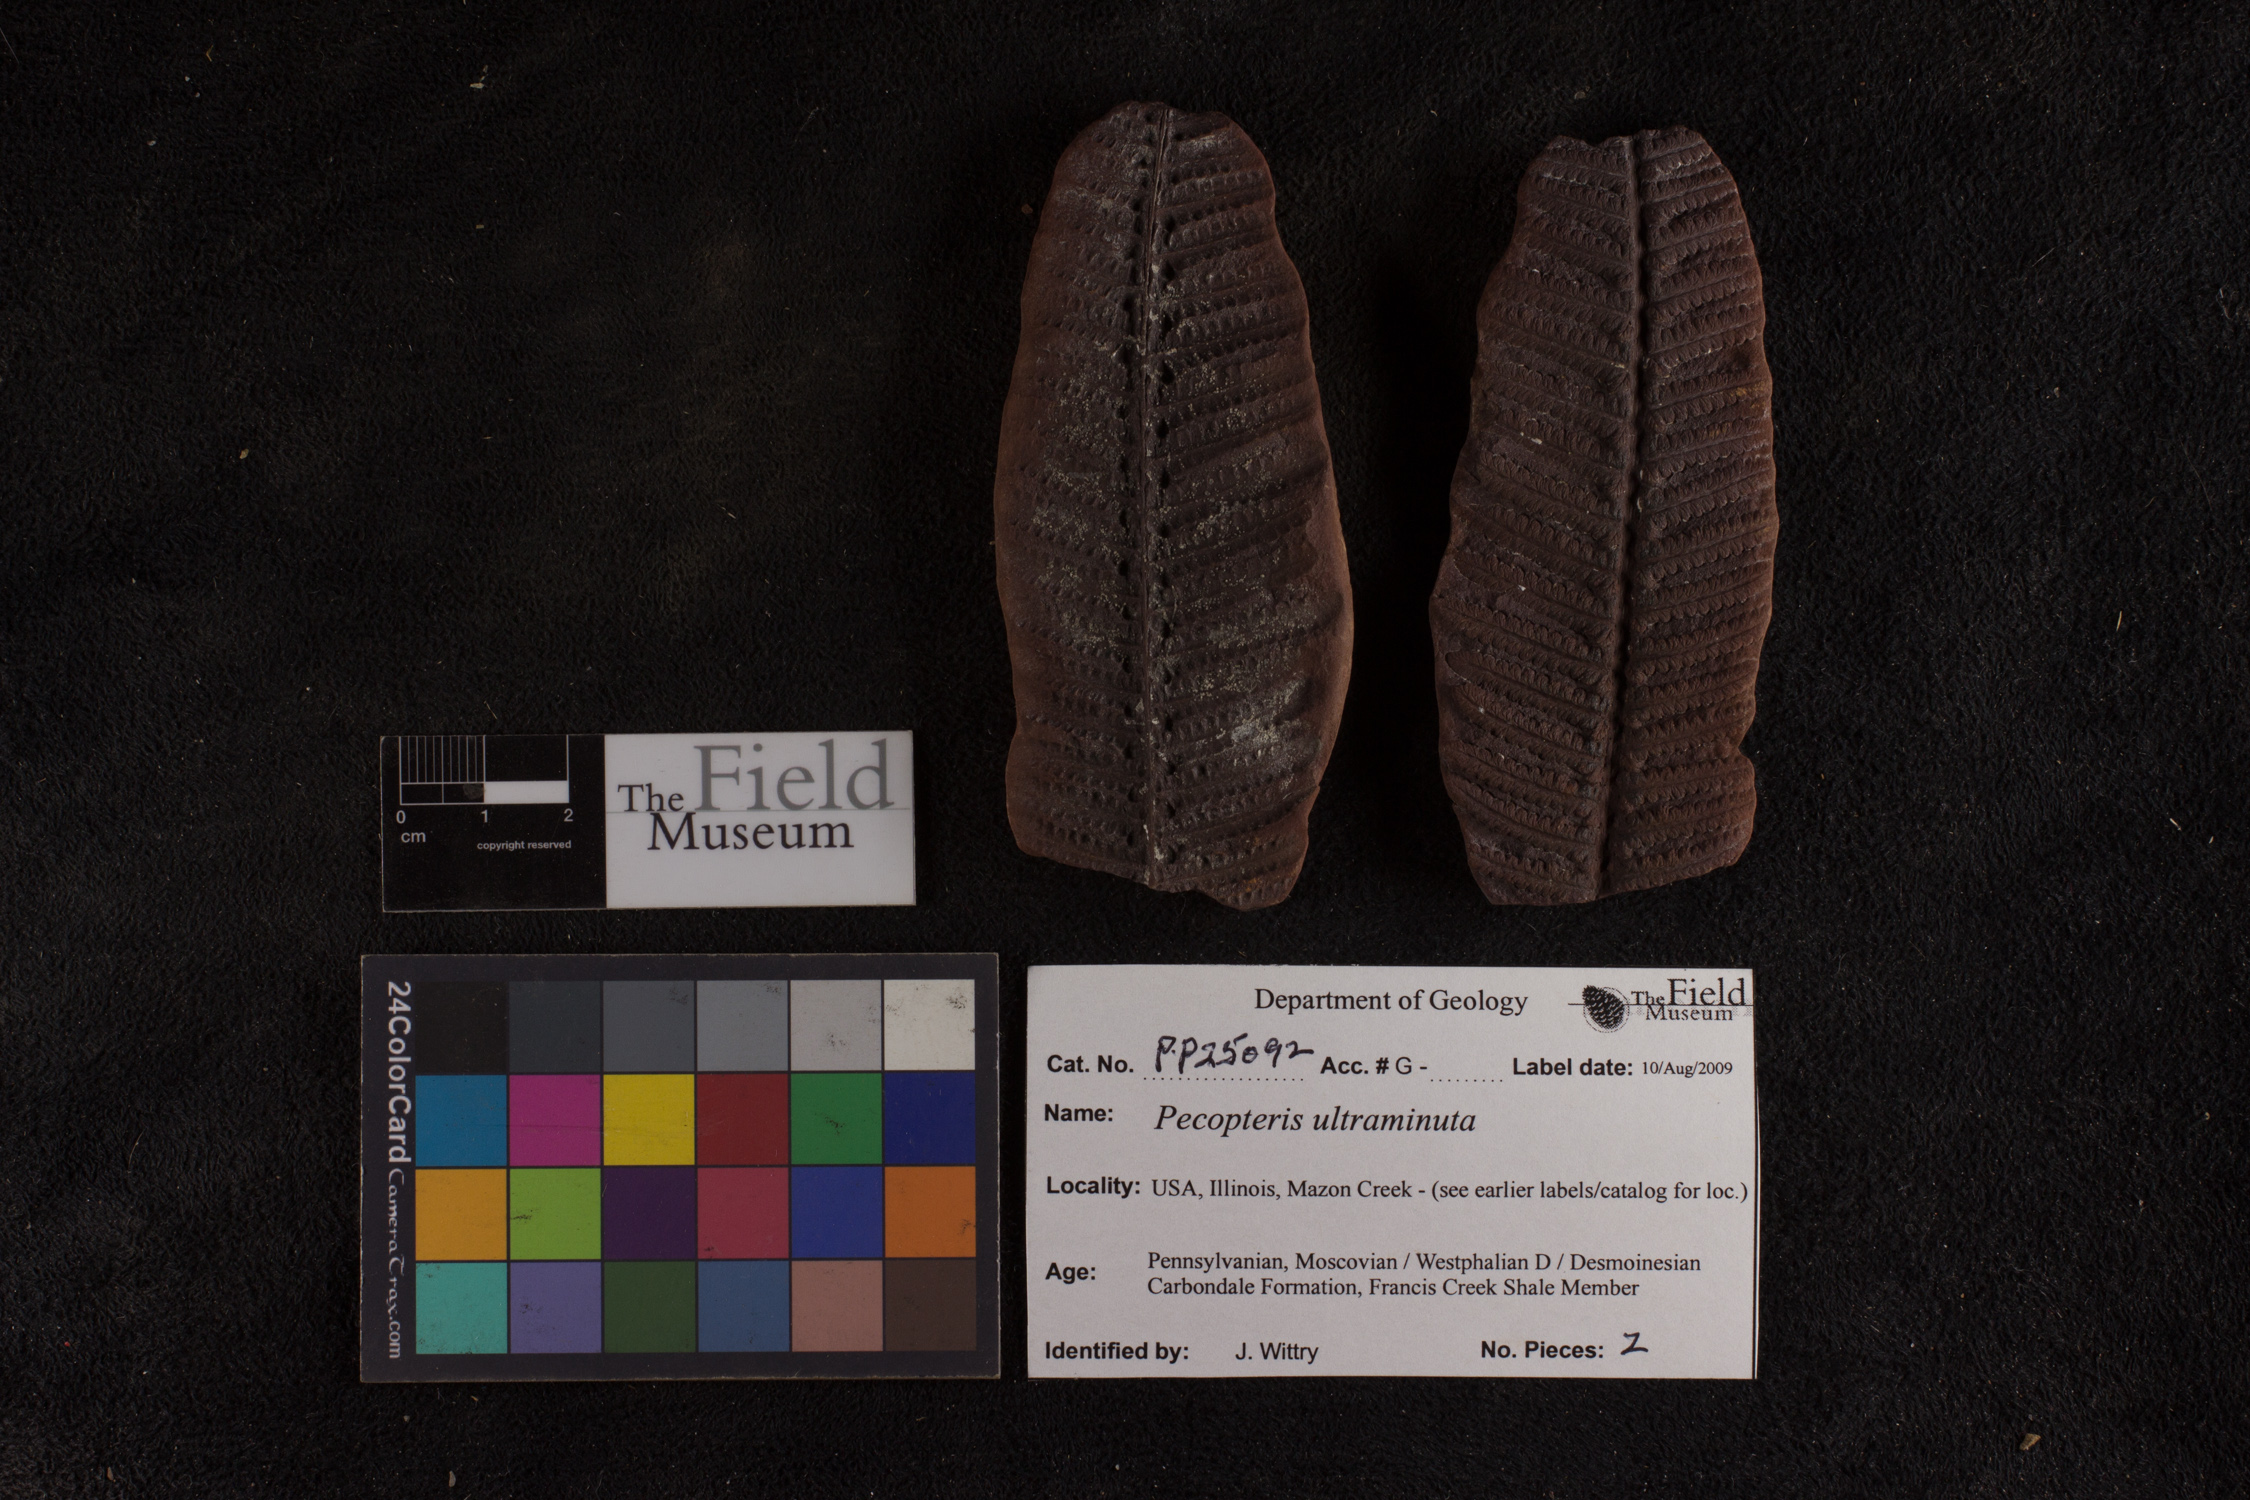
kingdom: Plantae
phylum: Tracheophyta
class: Polypodiopsida
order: Marattiales
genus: Cyathocarpus
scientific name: Cyathocarpus
